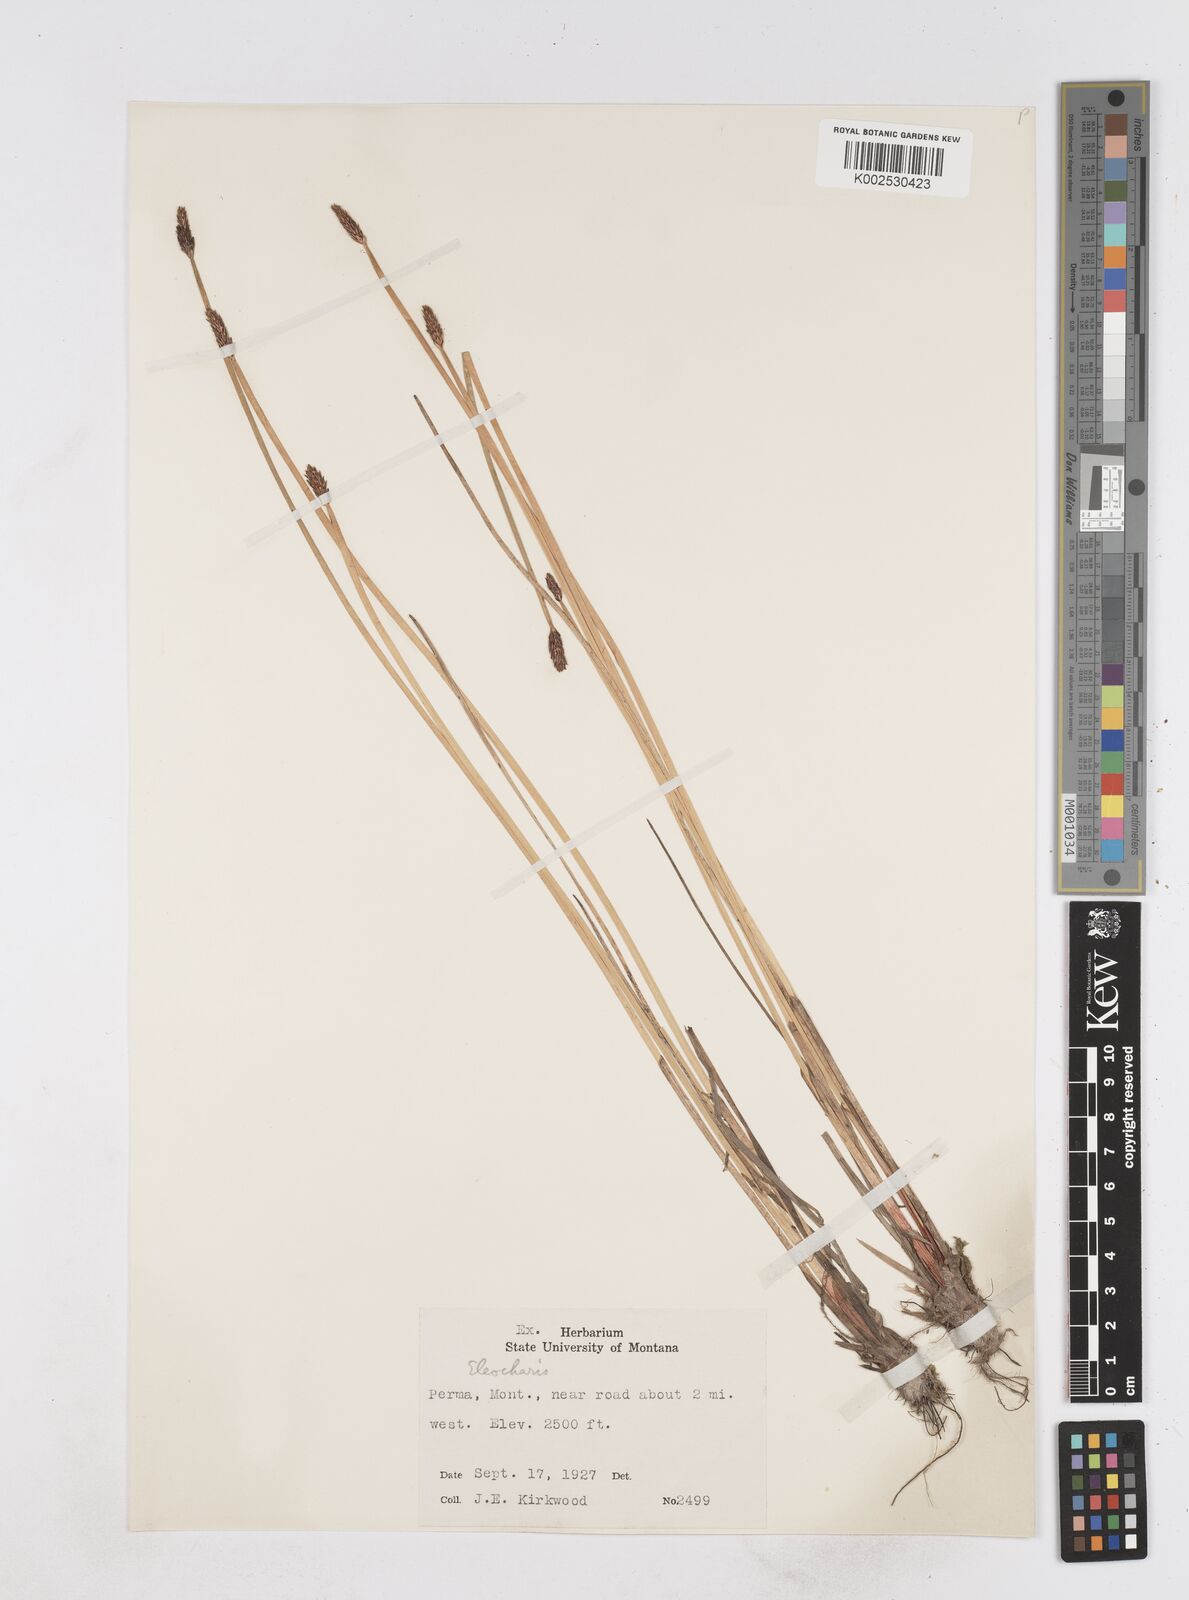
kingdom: Plantae
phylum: Tracheophyta
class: Liliopsida
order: Poales
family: Cyperaceae
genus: Eleocharis
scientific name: Eleocharis
